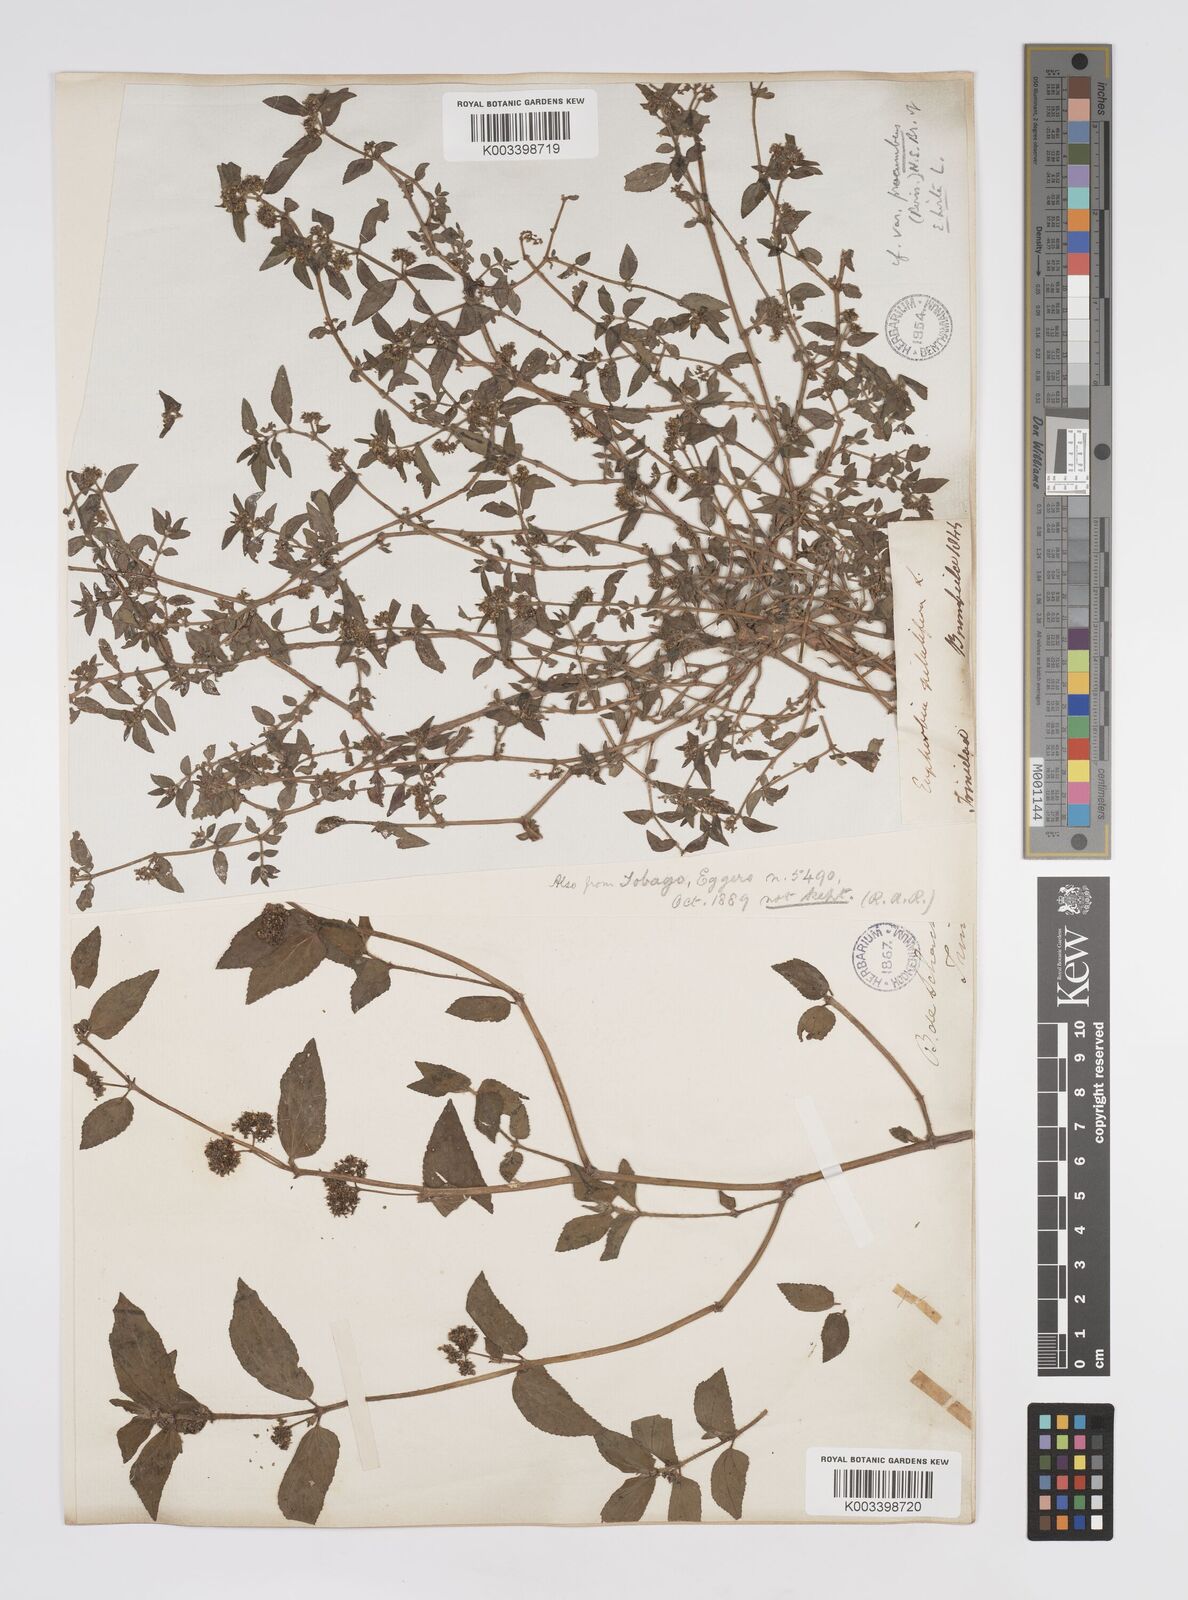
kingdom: Plantae
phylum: Tracheophyta
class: Magnoliopsida
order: Malpighiales
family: Euphorbiaceae
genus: Euphorbia
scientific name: Euphorbia hirta
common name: Pillpod sandmat
